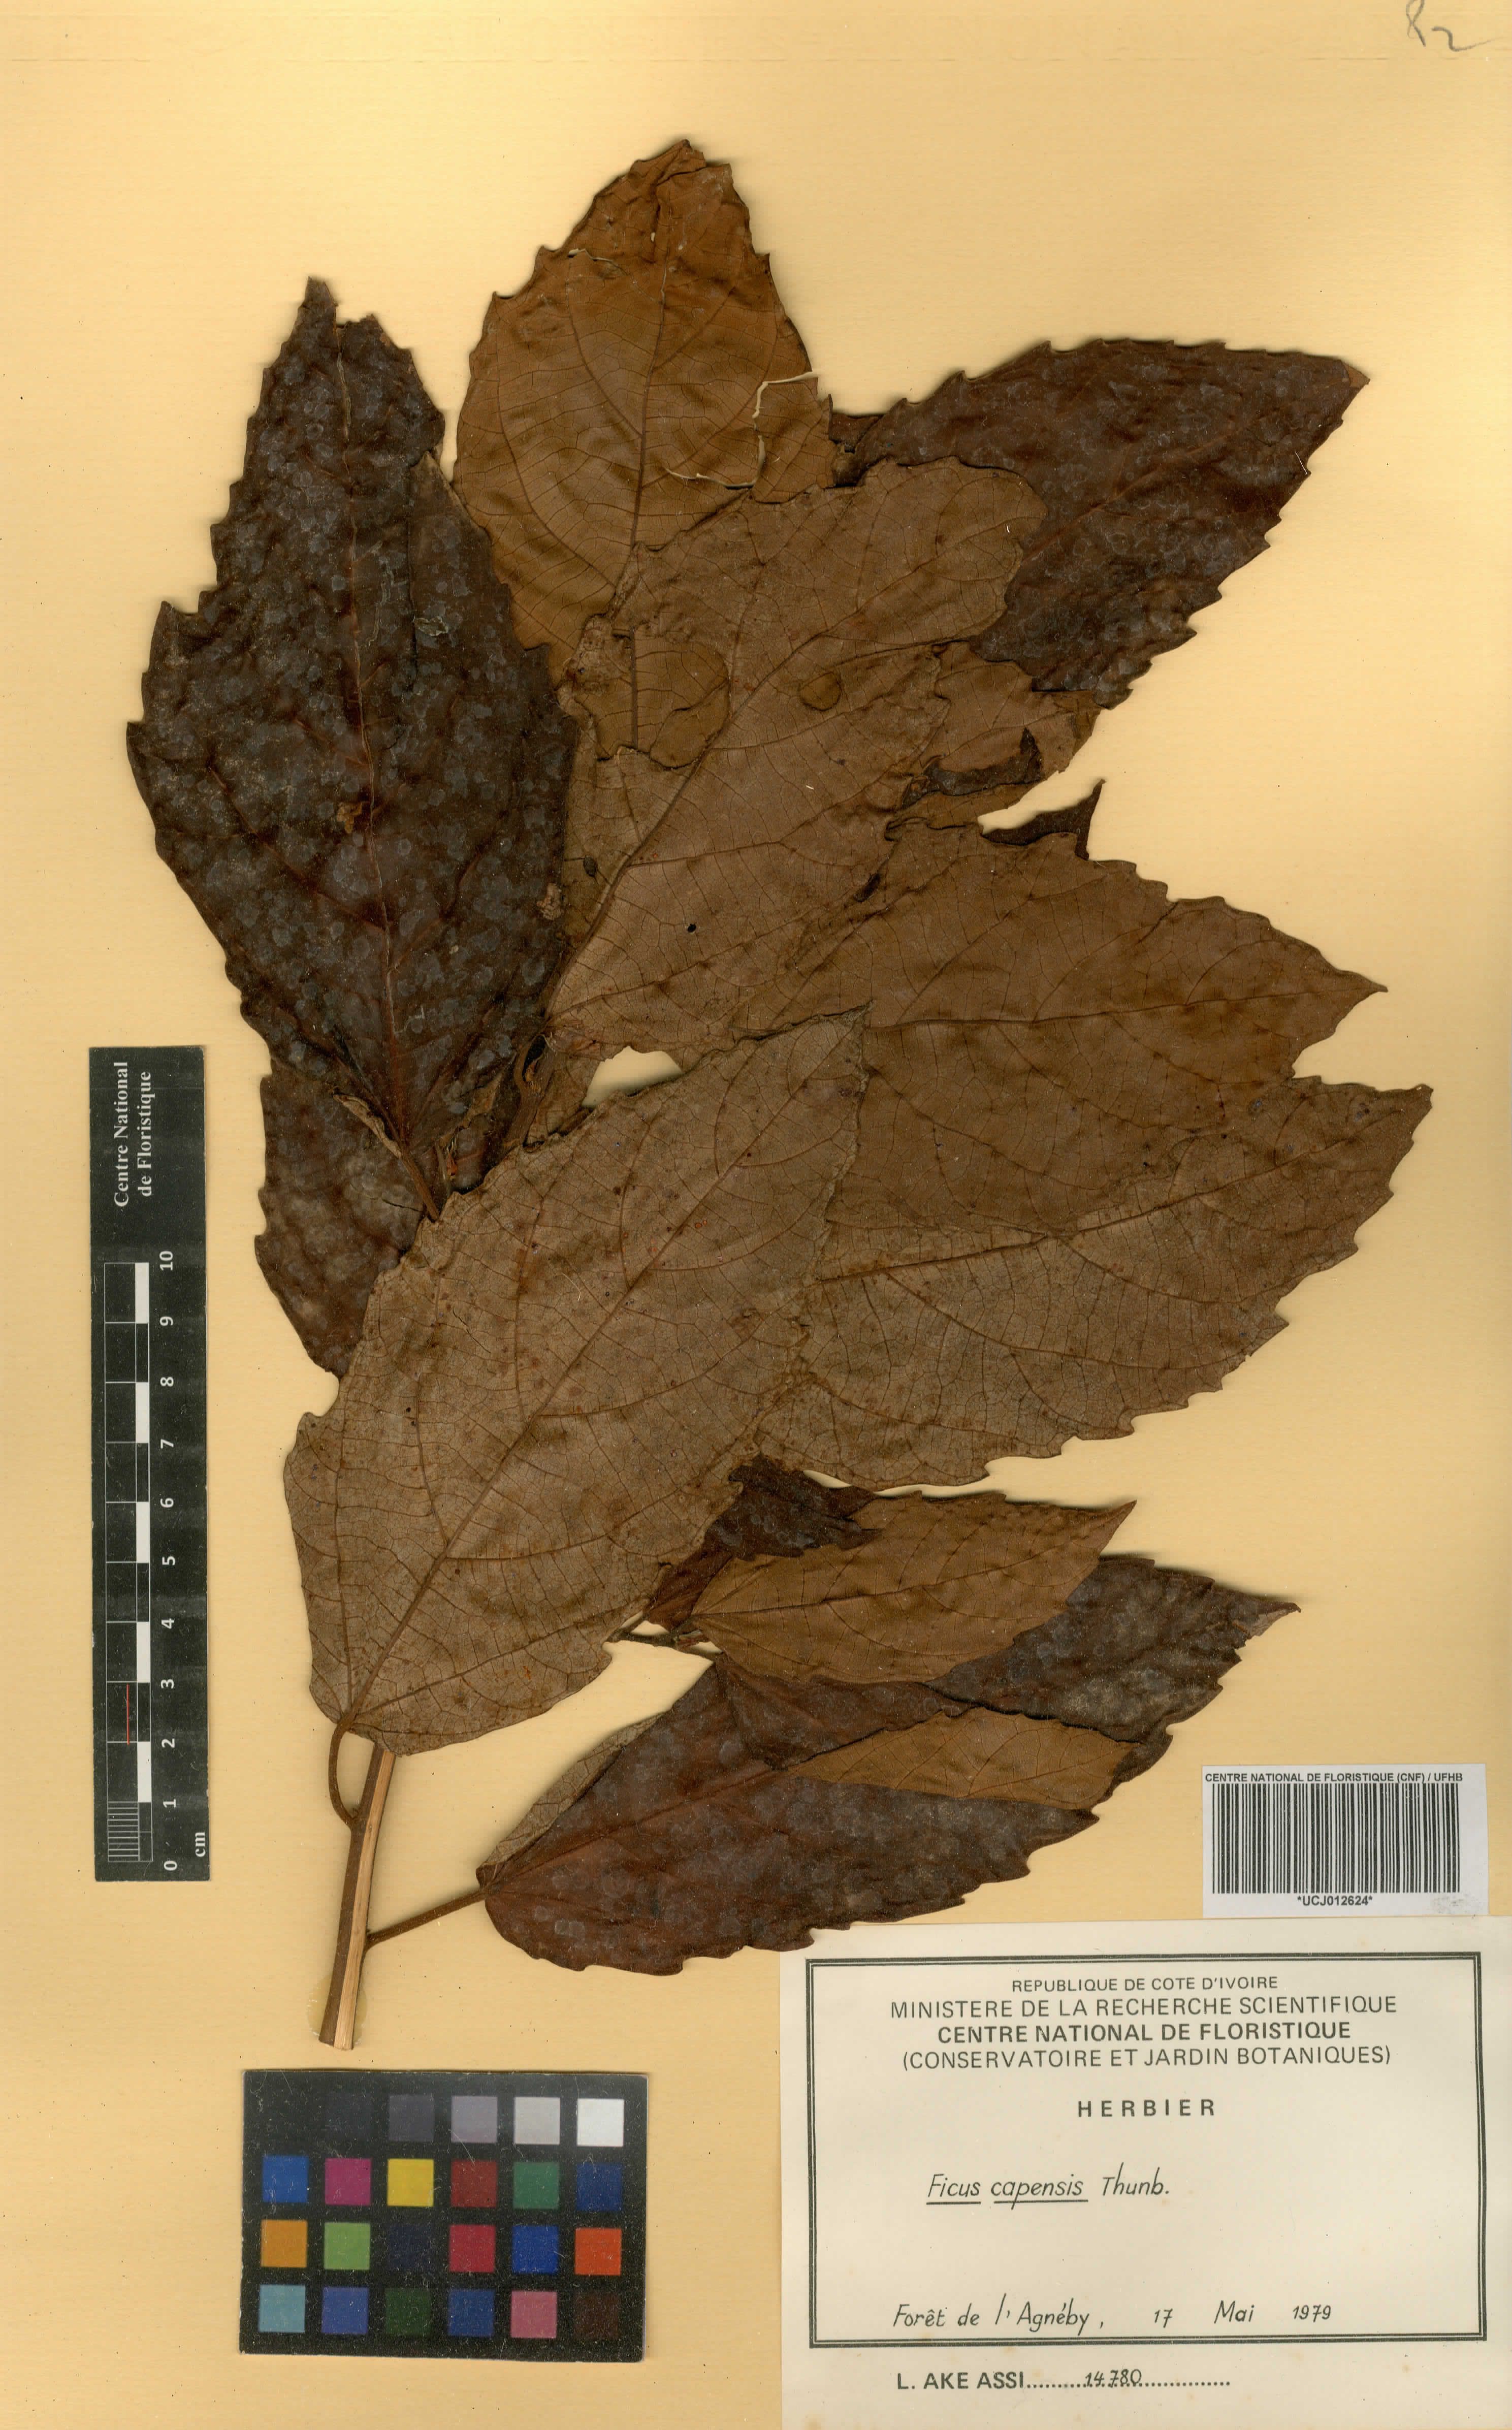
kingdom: Plantae
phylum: Tracheophyta
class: Magnoliopsida
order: Rosales
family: Moraceae
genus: Ficus
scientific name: Ficus sur
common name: Cape fig
